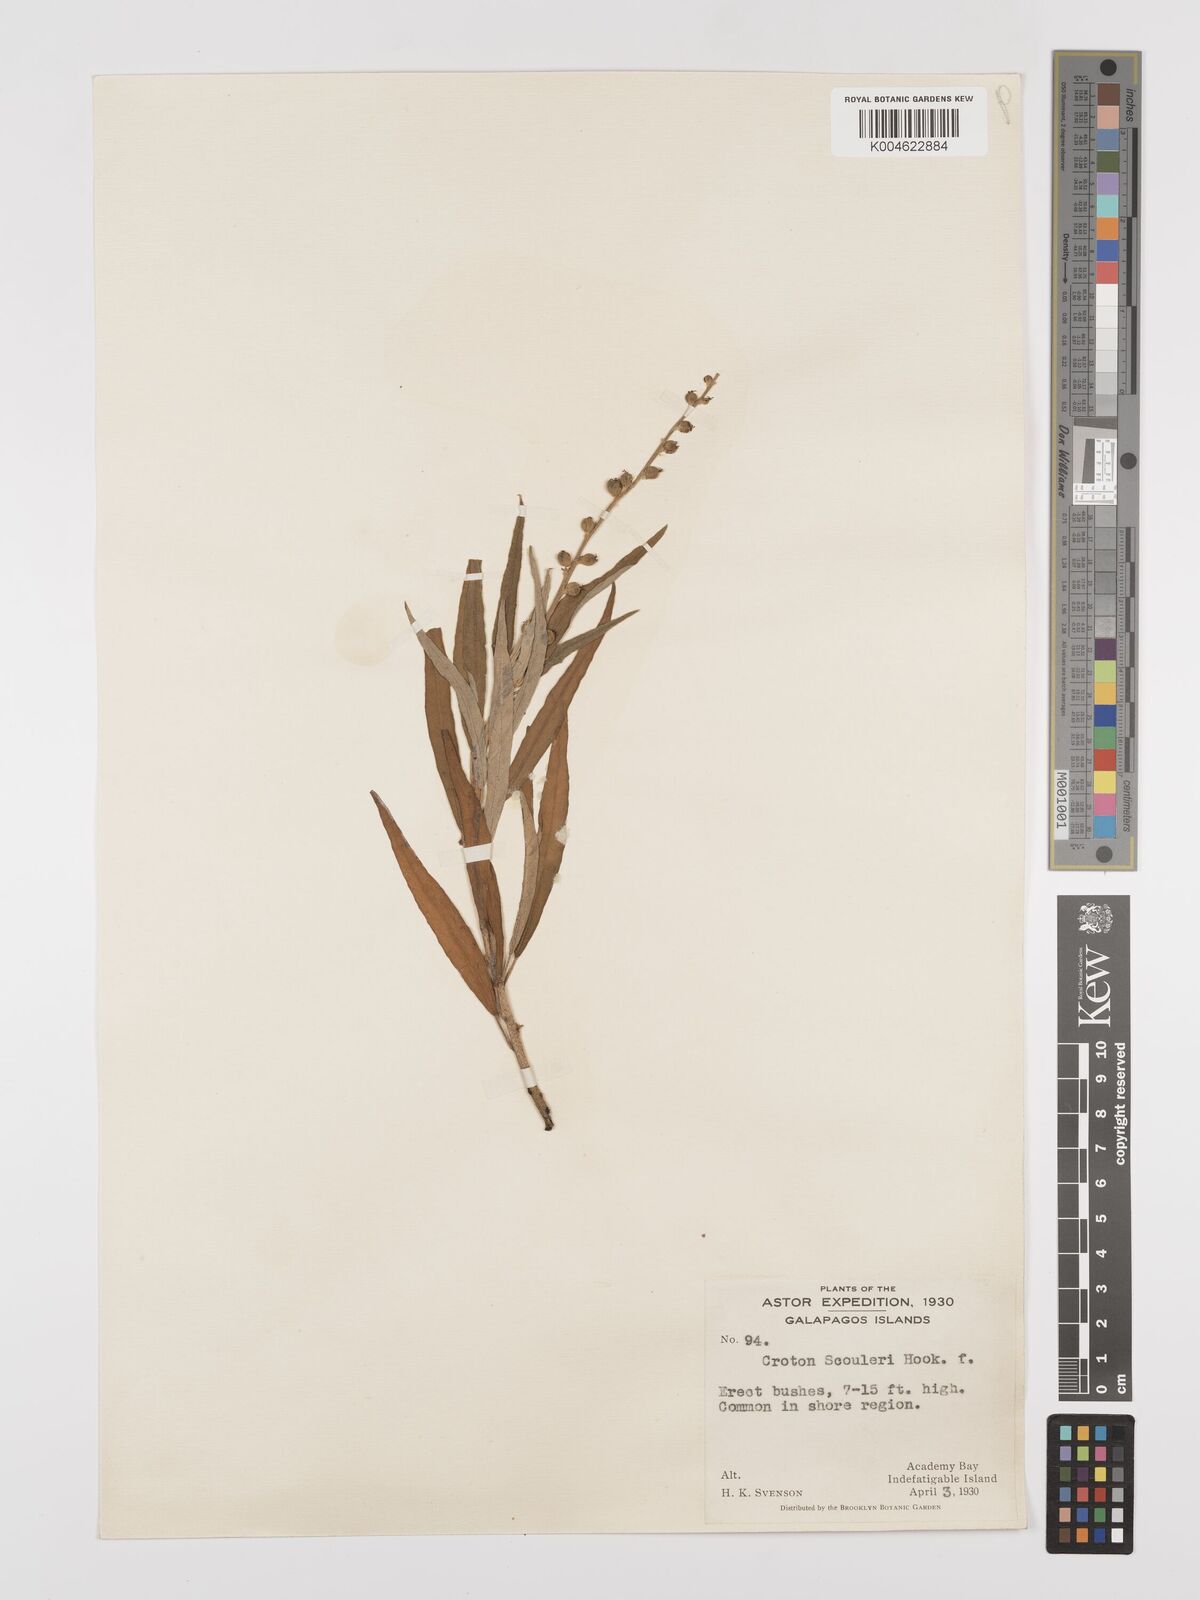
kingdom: Plantae
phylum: Tracheophyta
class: Magnoliopsida
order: Malpighiales
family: Euphorbiaceae
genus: Croton
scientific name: Croton scouleri
